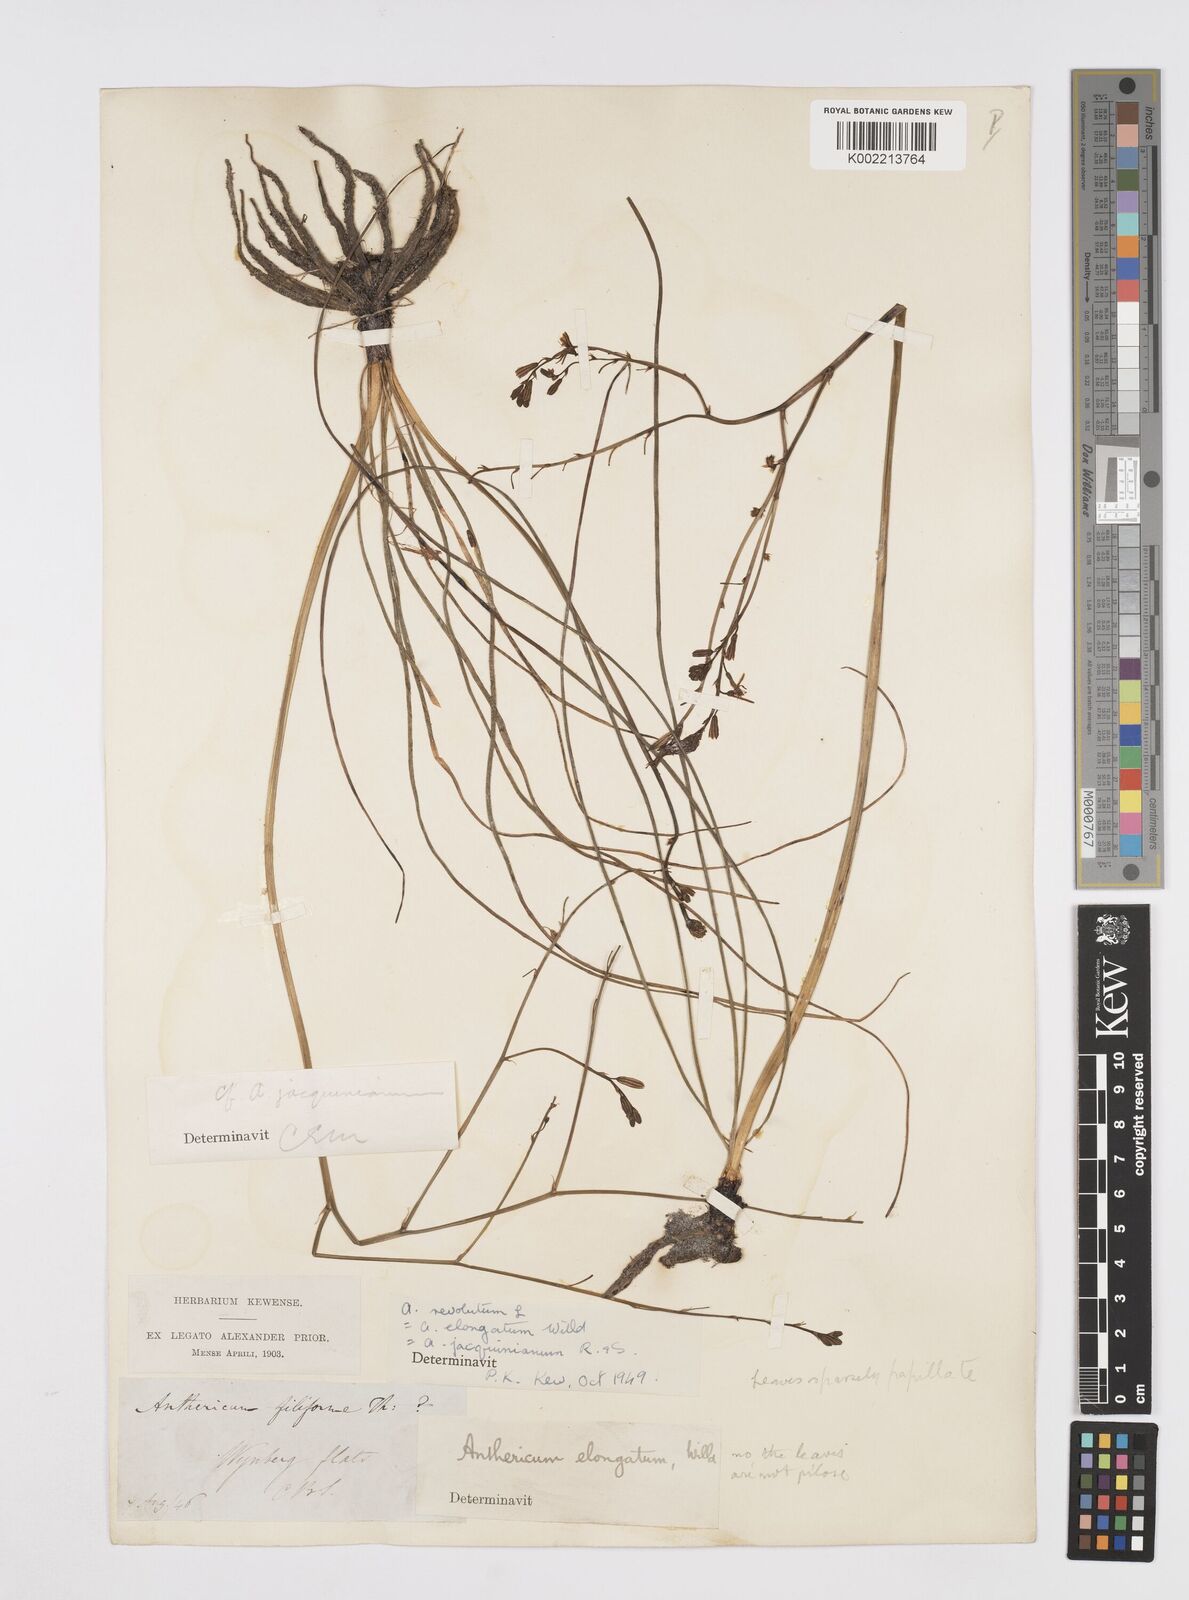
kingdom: Plantae
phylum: Tracheophyta
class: Liliopsida
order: Asparagales
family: Asphodelaceae
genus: Trachyandra
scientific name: Trachyandra revoluta
